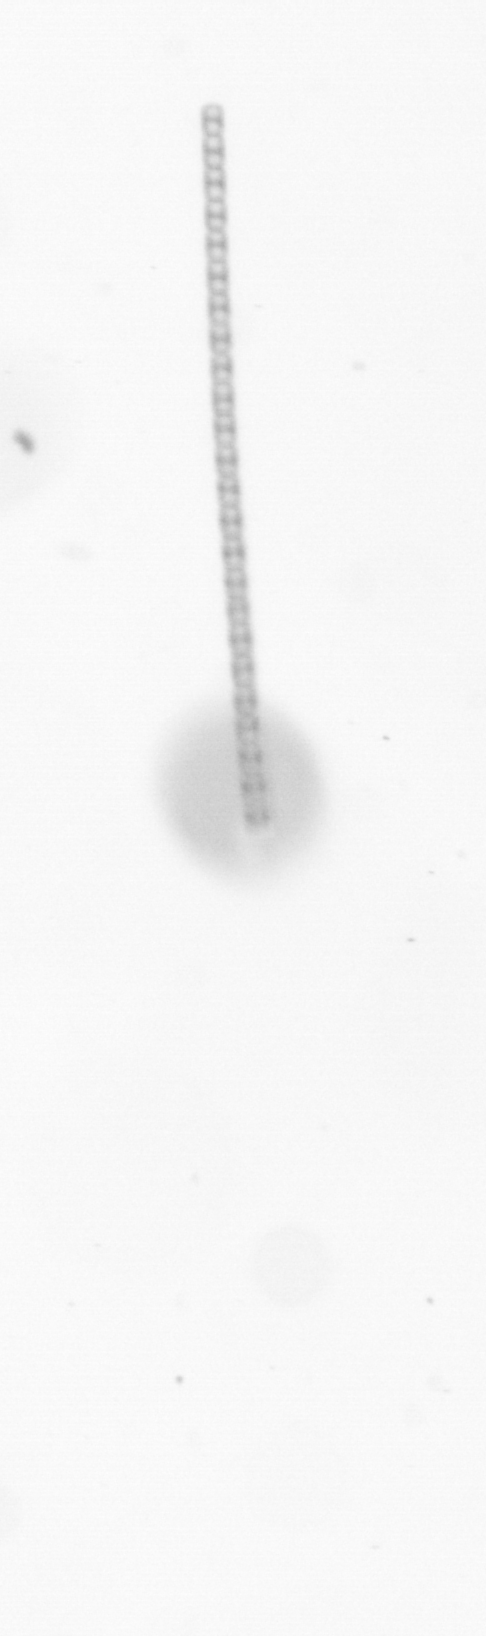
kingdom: Chromista
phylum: Ochrophyta
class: Bacillariophyceae
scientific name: Bacillariophyceae
